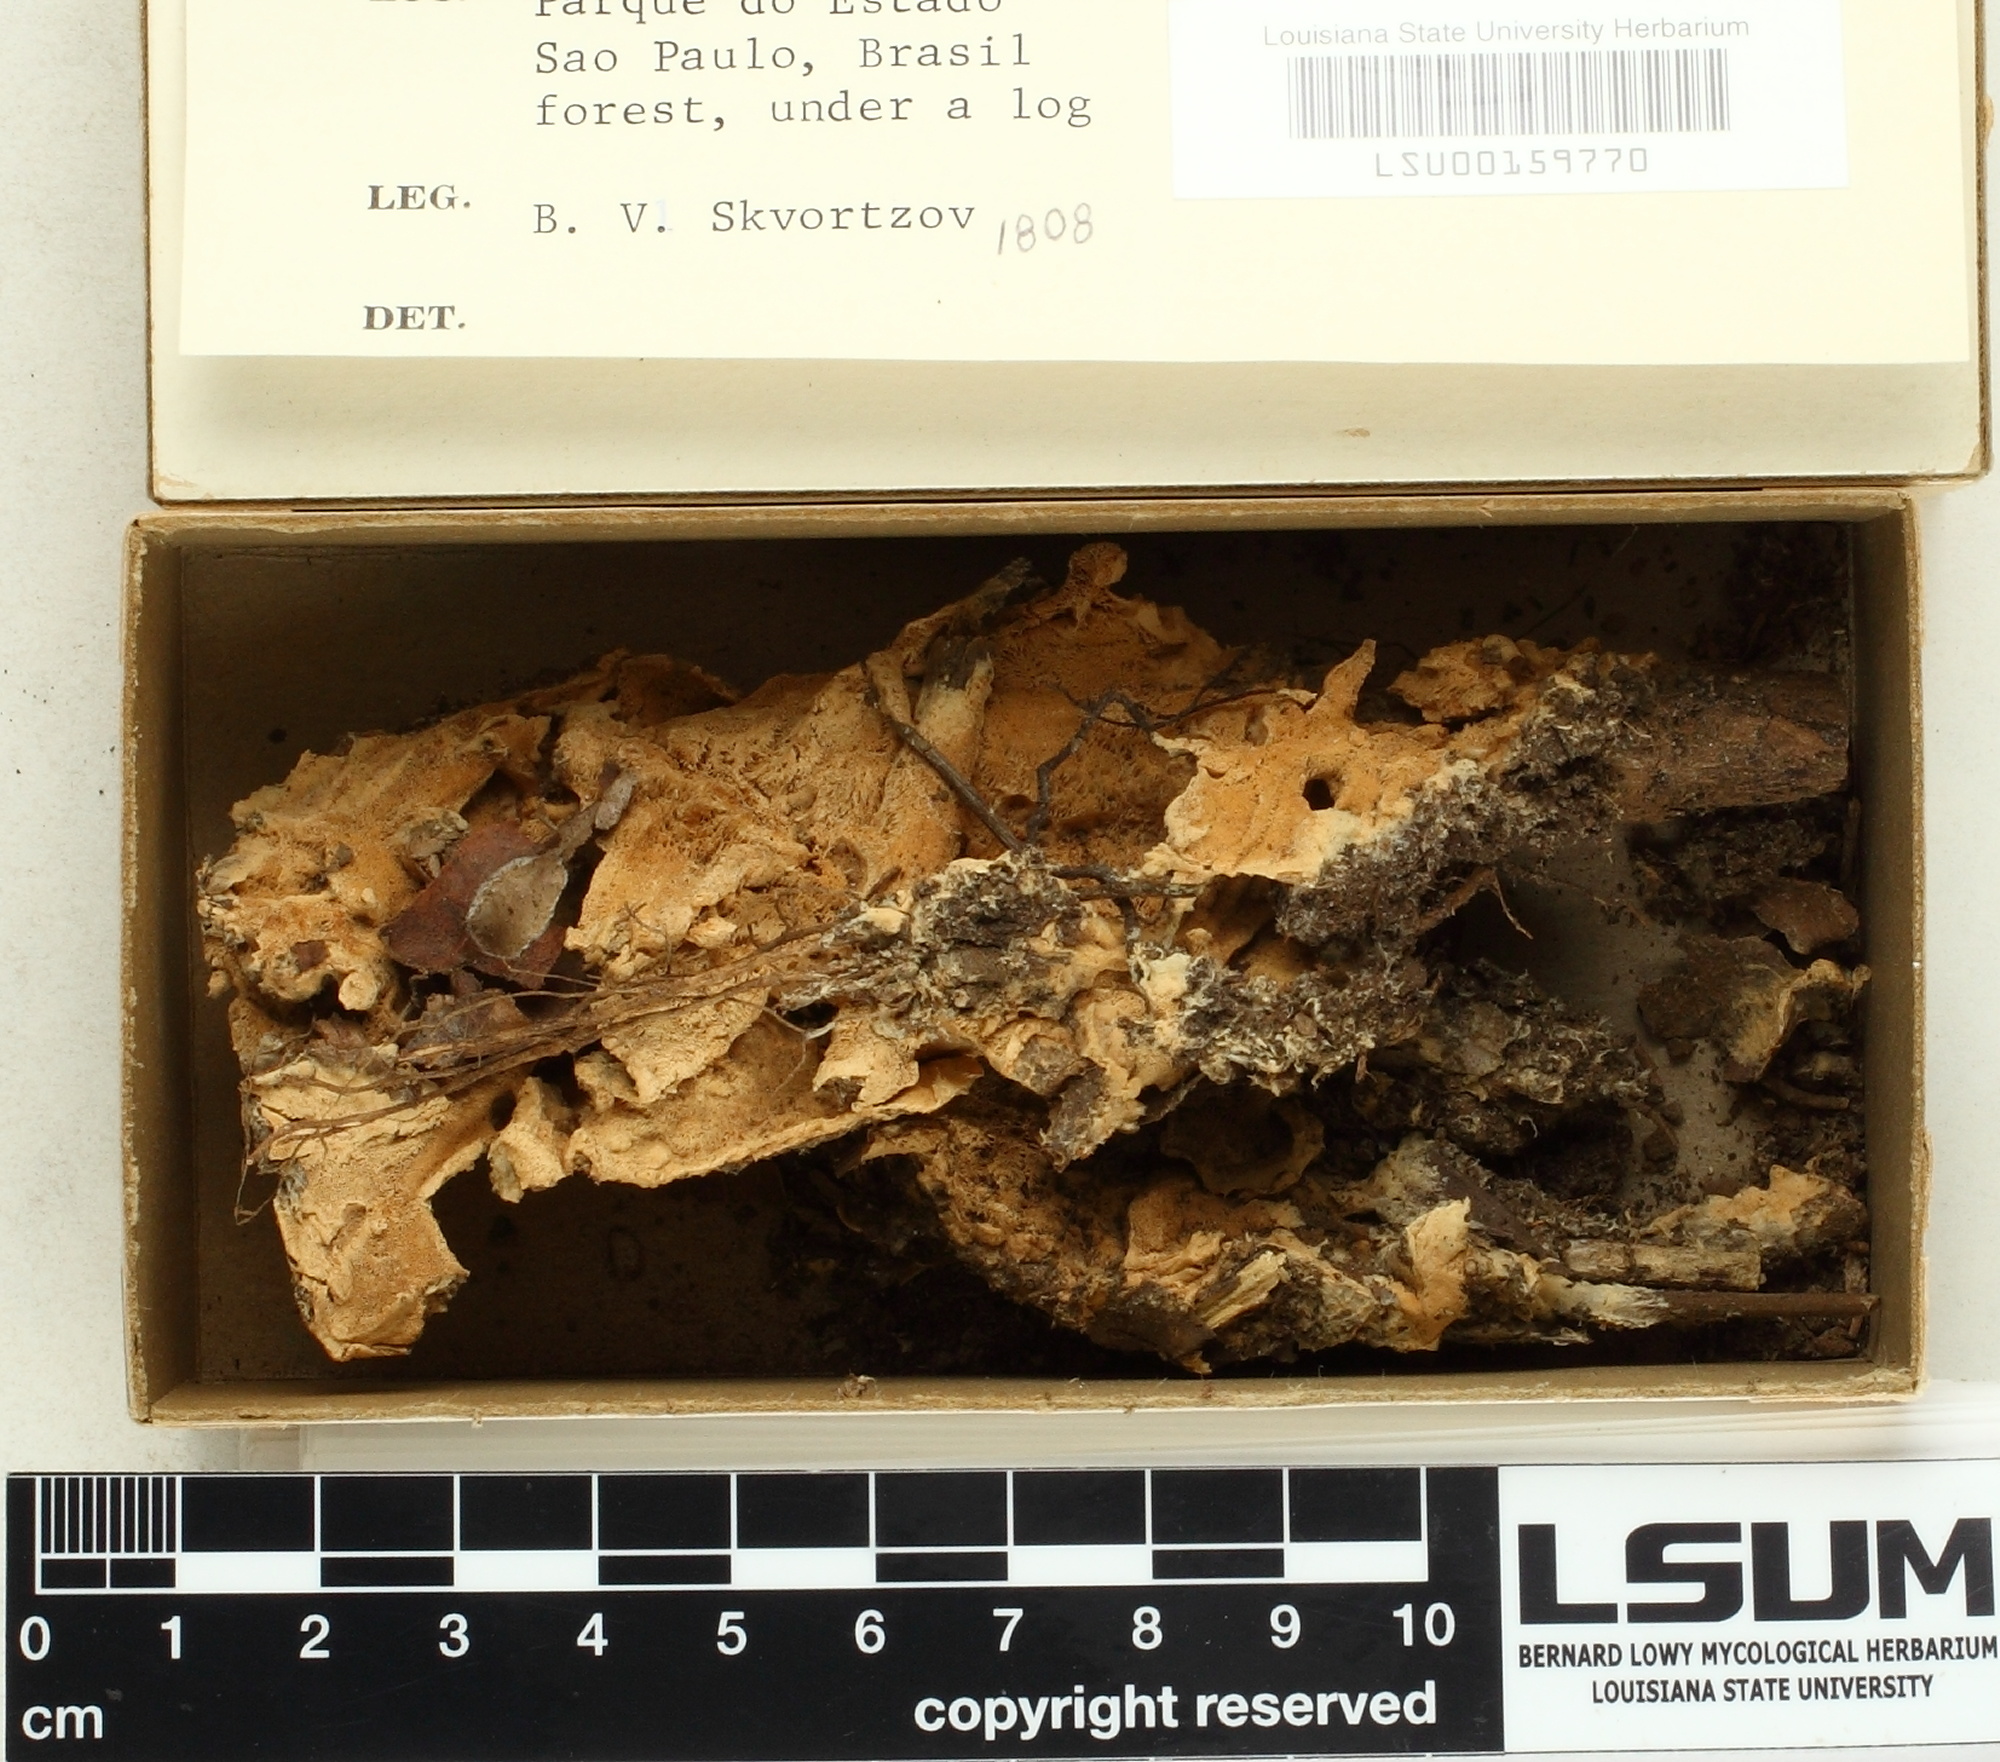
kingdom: Fungi
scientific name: Fungi
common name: Fungi
